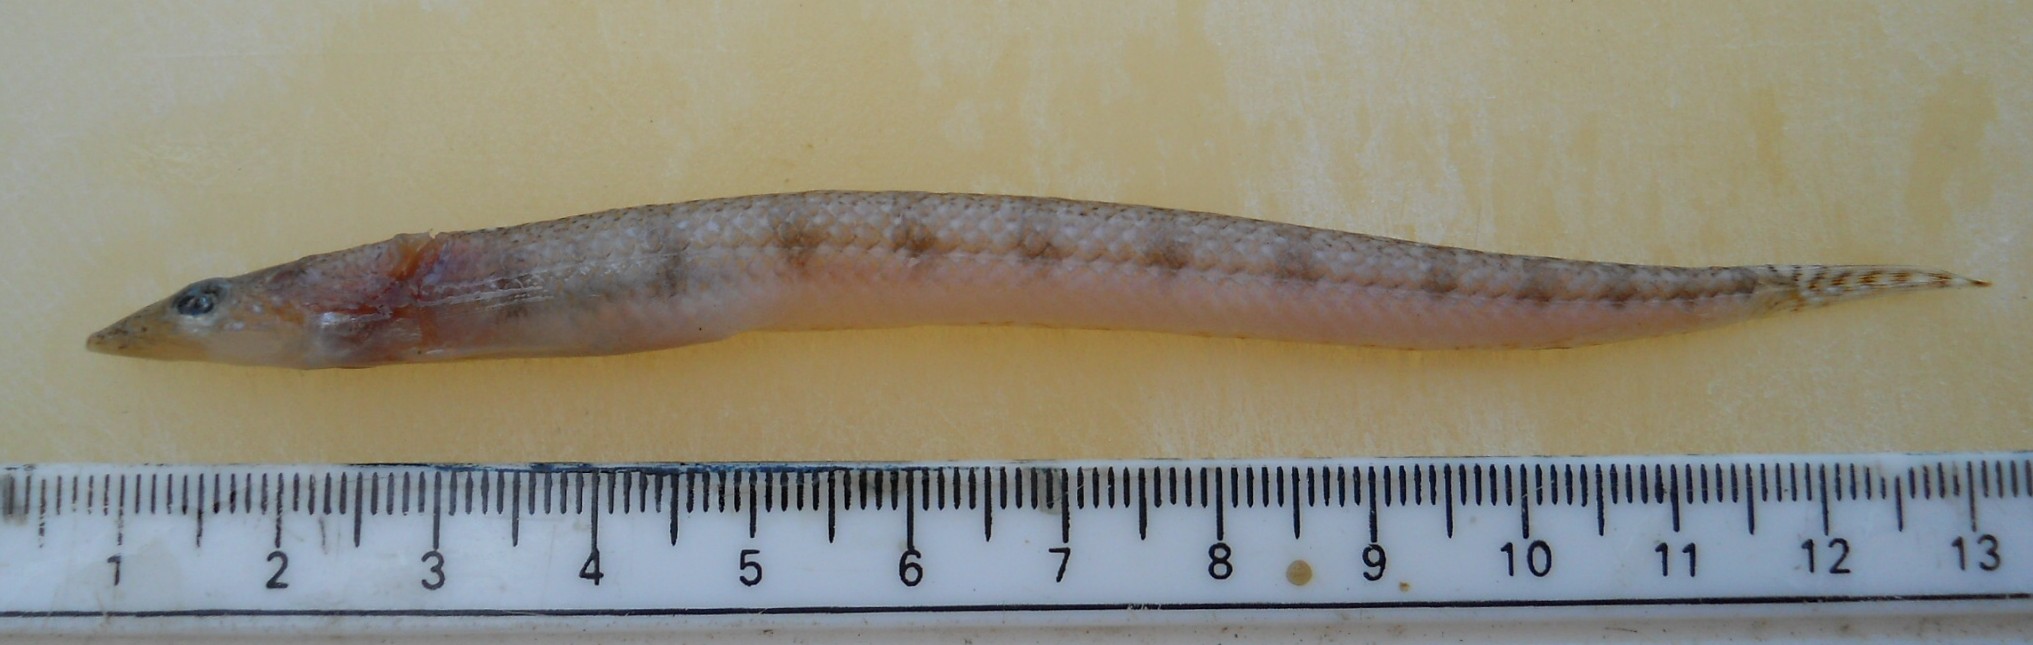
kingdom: Animalia
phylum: Chordata
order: Perciformes
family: Trichonotidae
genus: Trichonotus
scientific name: Trichonotus marleyi
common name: Sand diver
